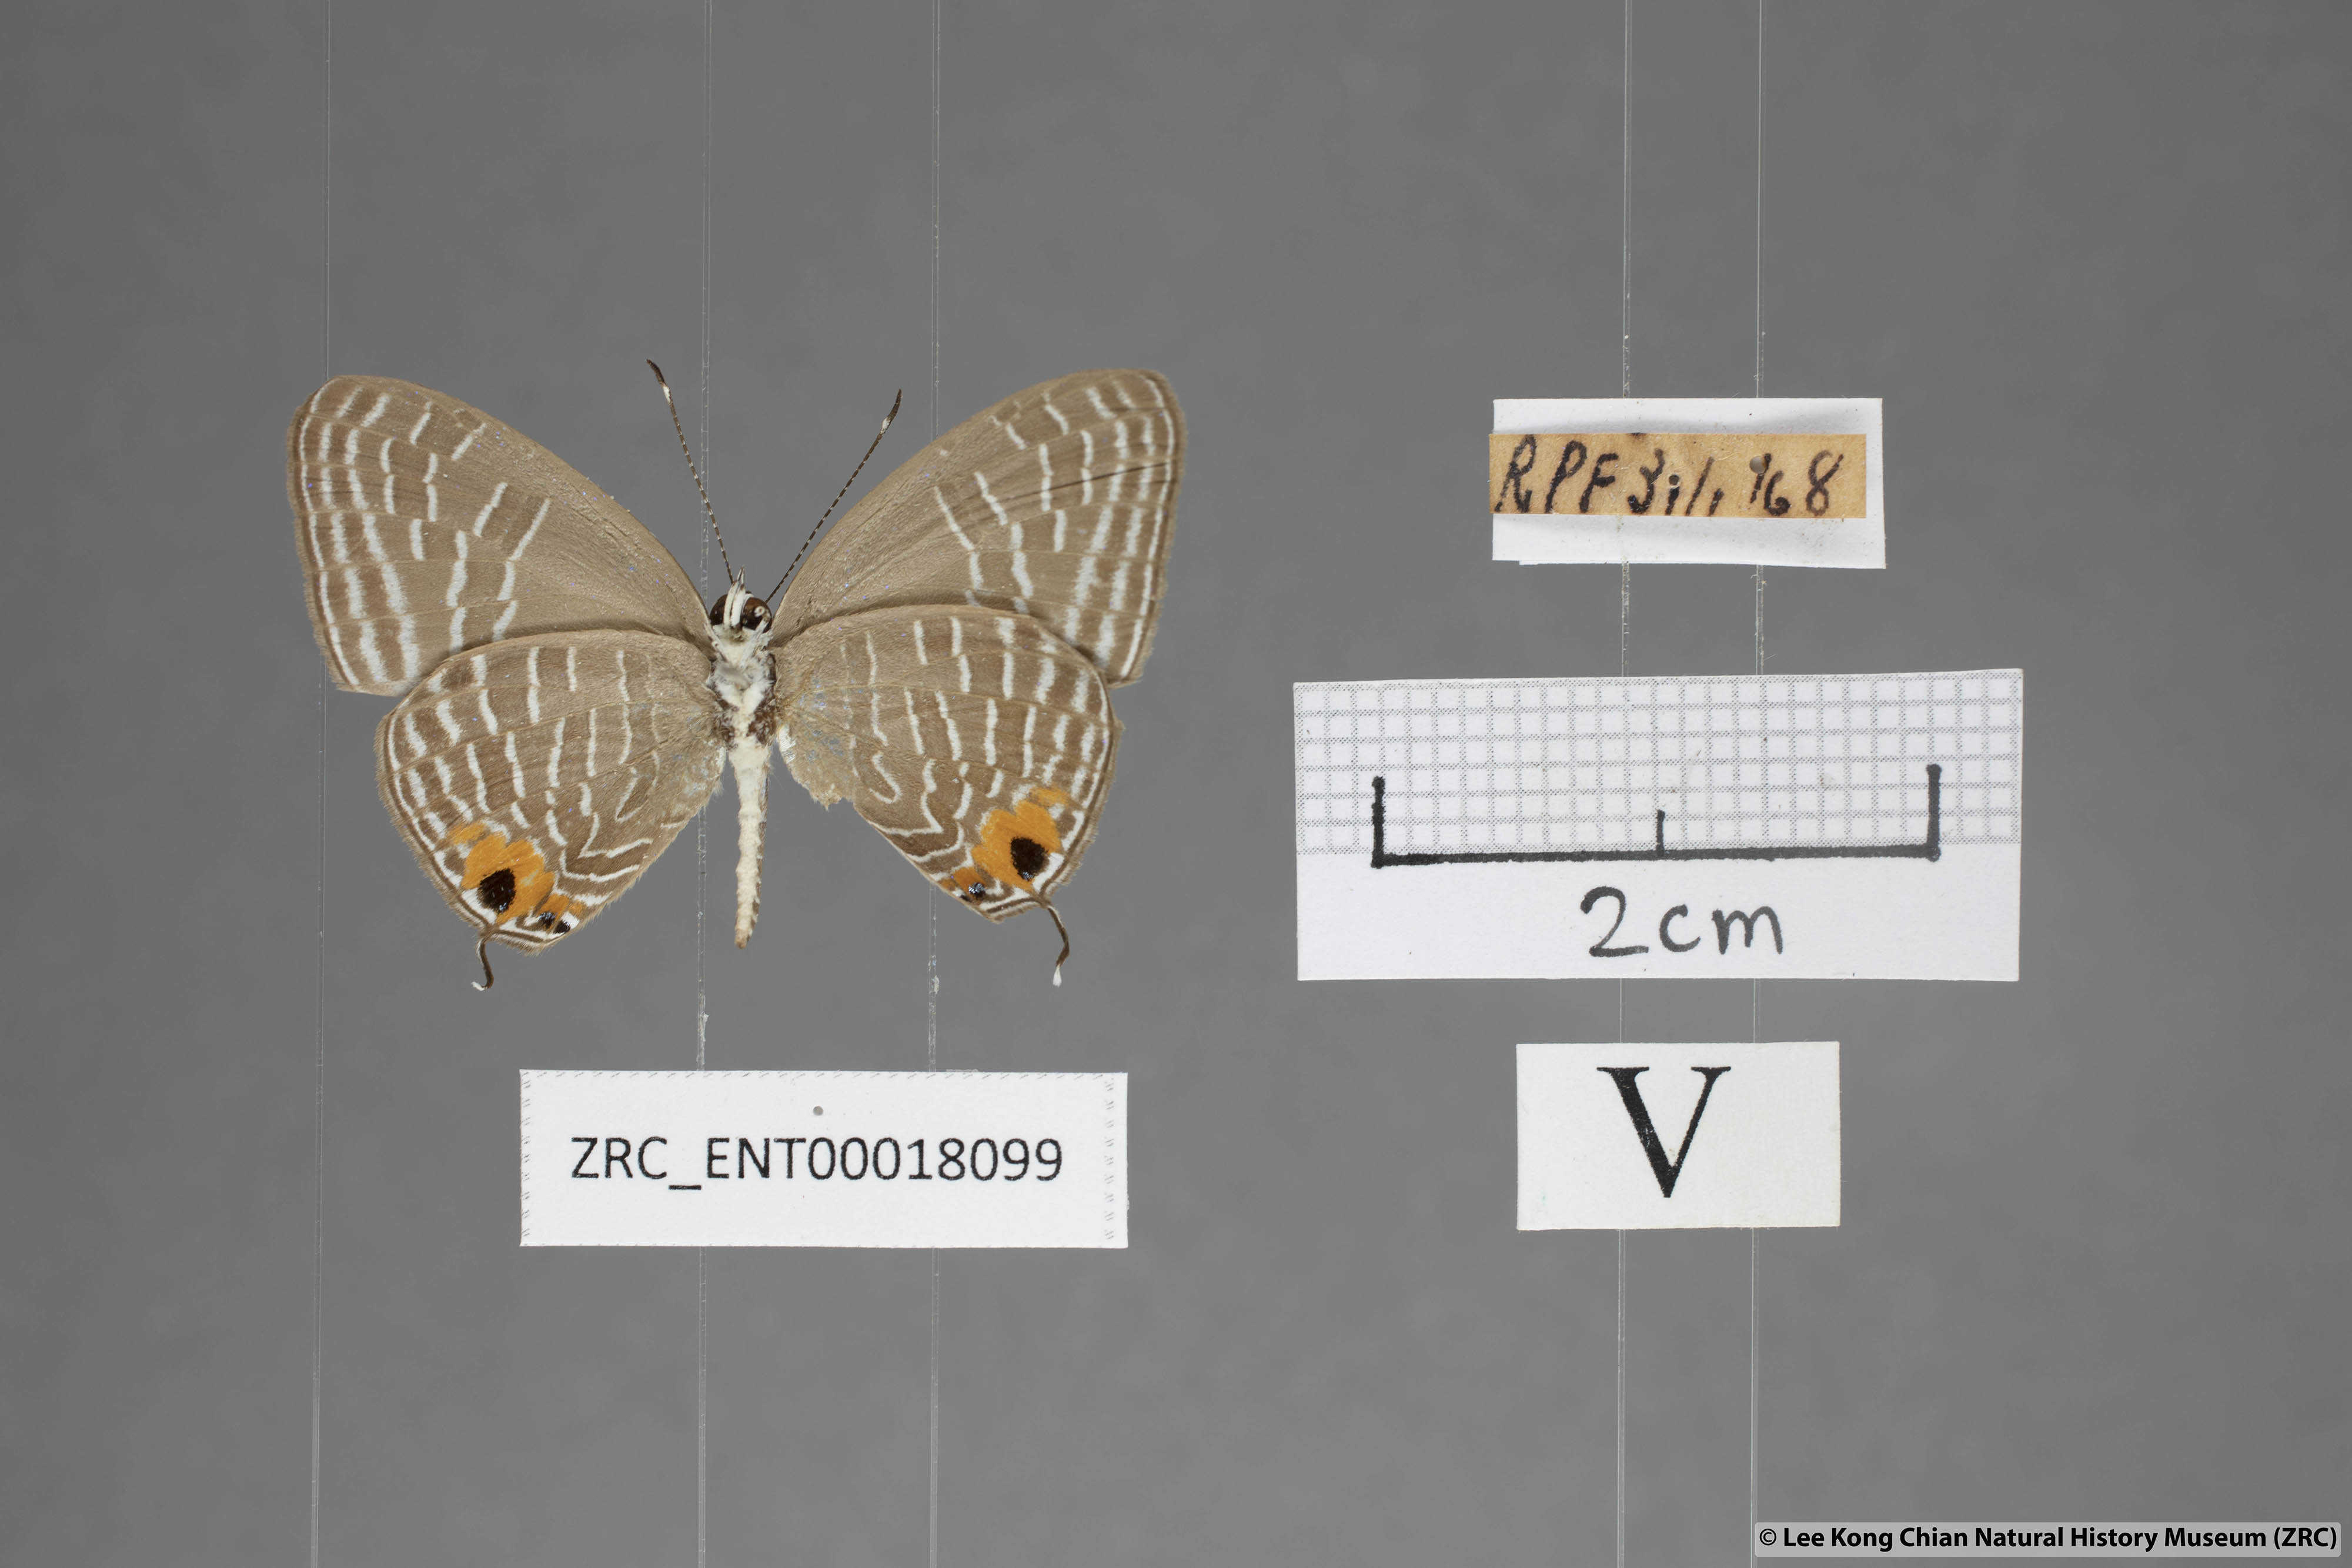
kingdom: Animalia
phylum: Arthropoda
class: Insecta
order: Lepidoptera
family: Lycaenidae
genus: Jamides
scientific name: Jamides
